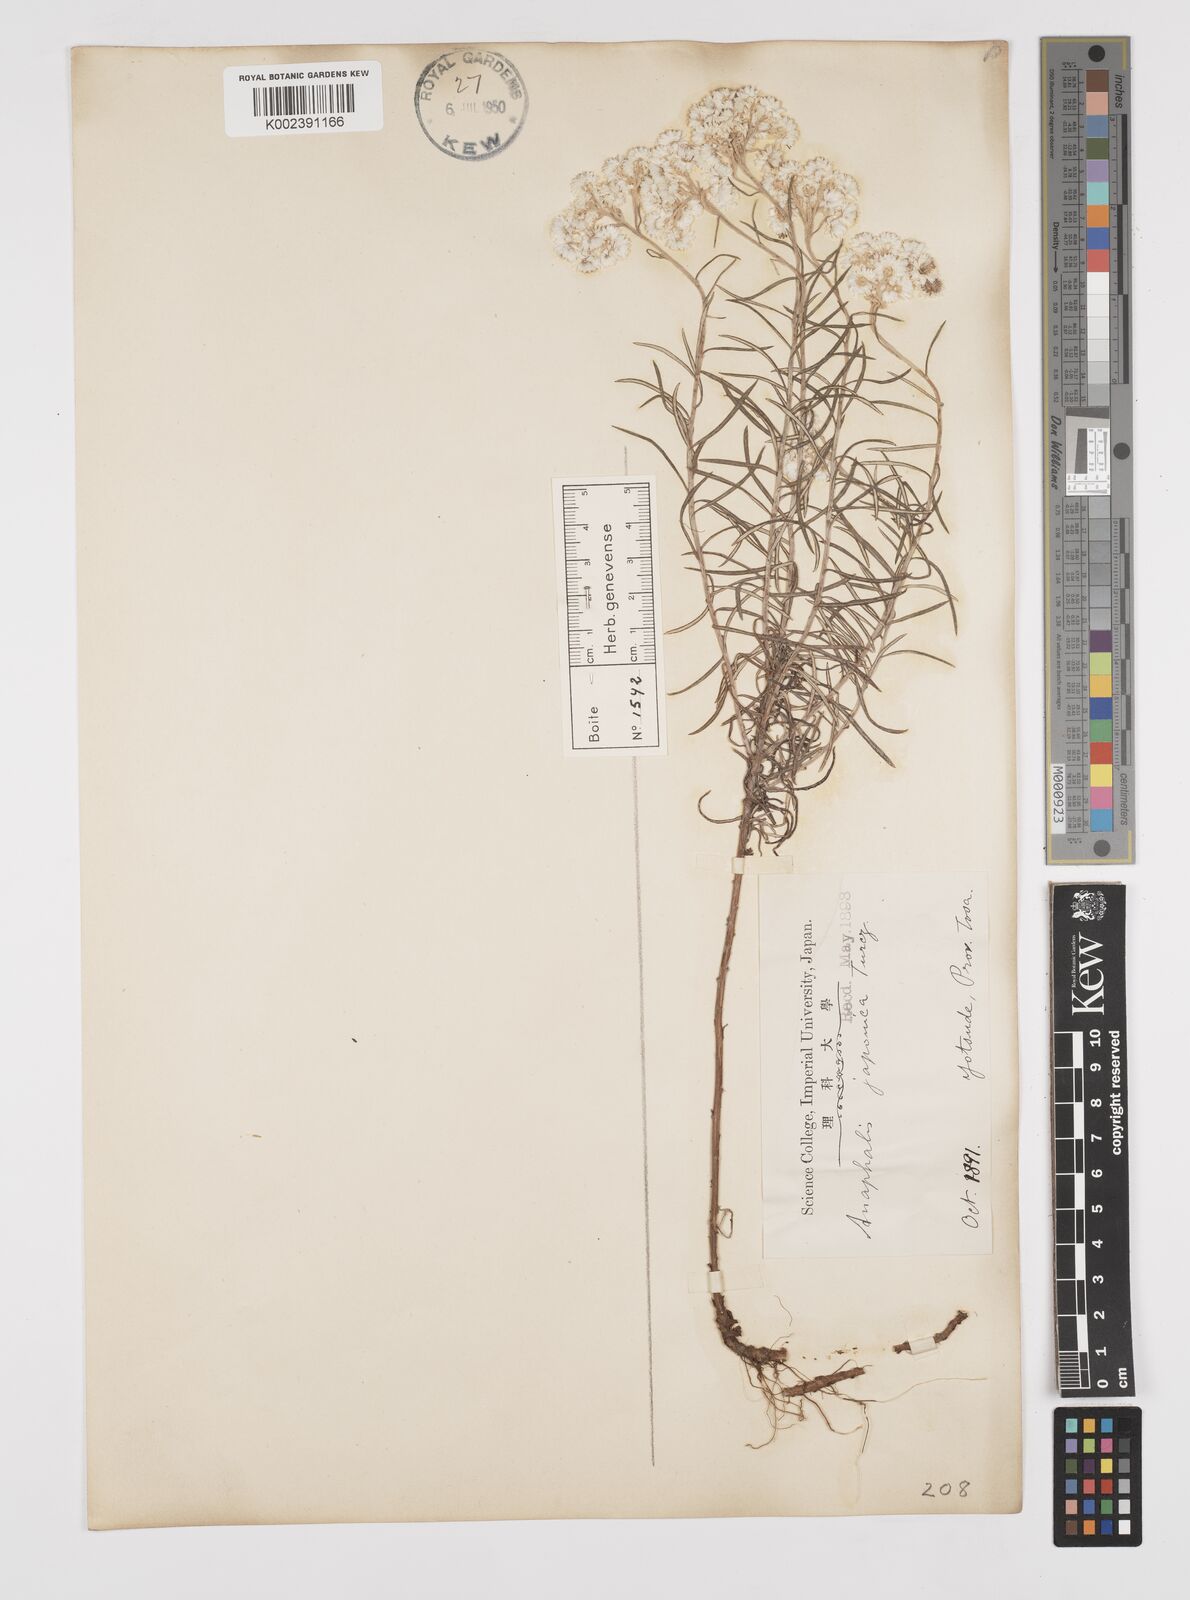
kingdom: Plantae
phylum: Tracheophyta
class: Magnoliopsida
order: Asterales
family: Asteraceae
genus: Anaphalis
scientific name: Anaphalis margaritacea
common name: Pearly everlasting
